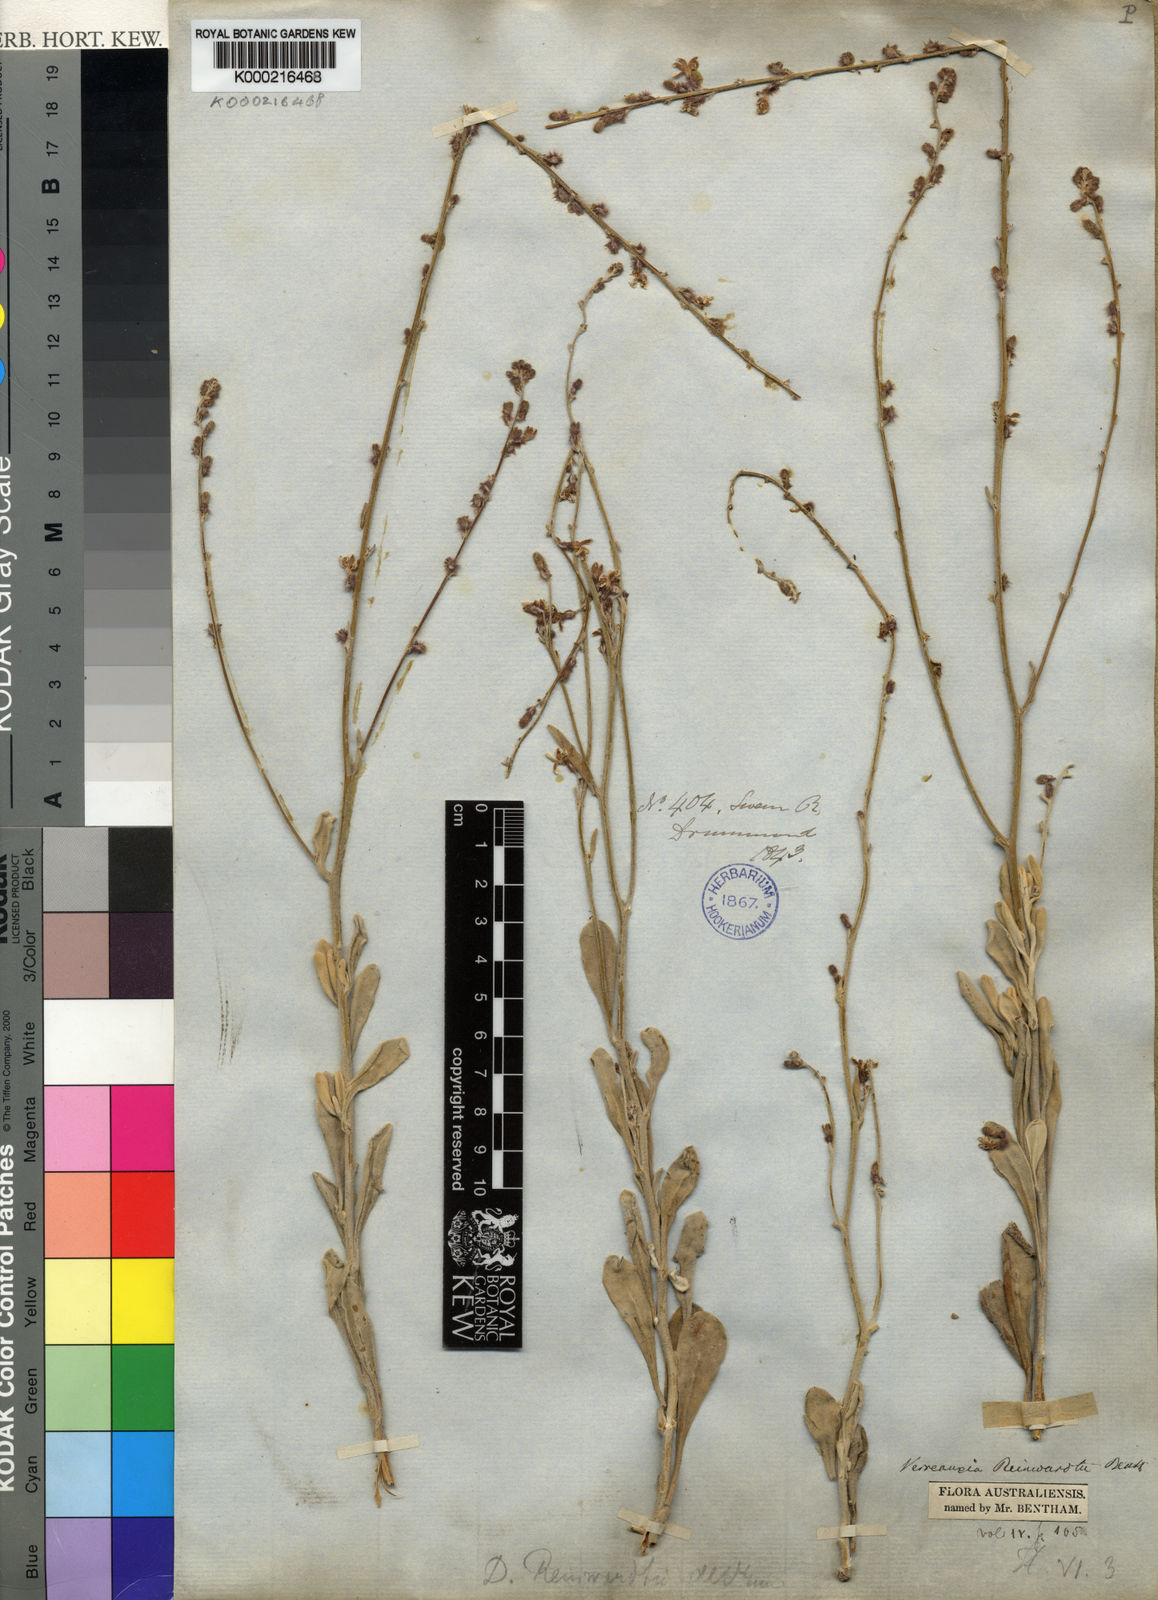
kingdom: Plantae
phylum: Tracheophyta
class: Magnoliopsida
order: Asterales
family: Goodeniaceae
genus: Goodenia
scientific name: Goodenia reinwardtii
